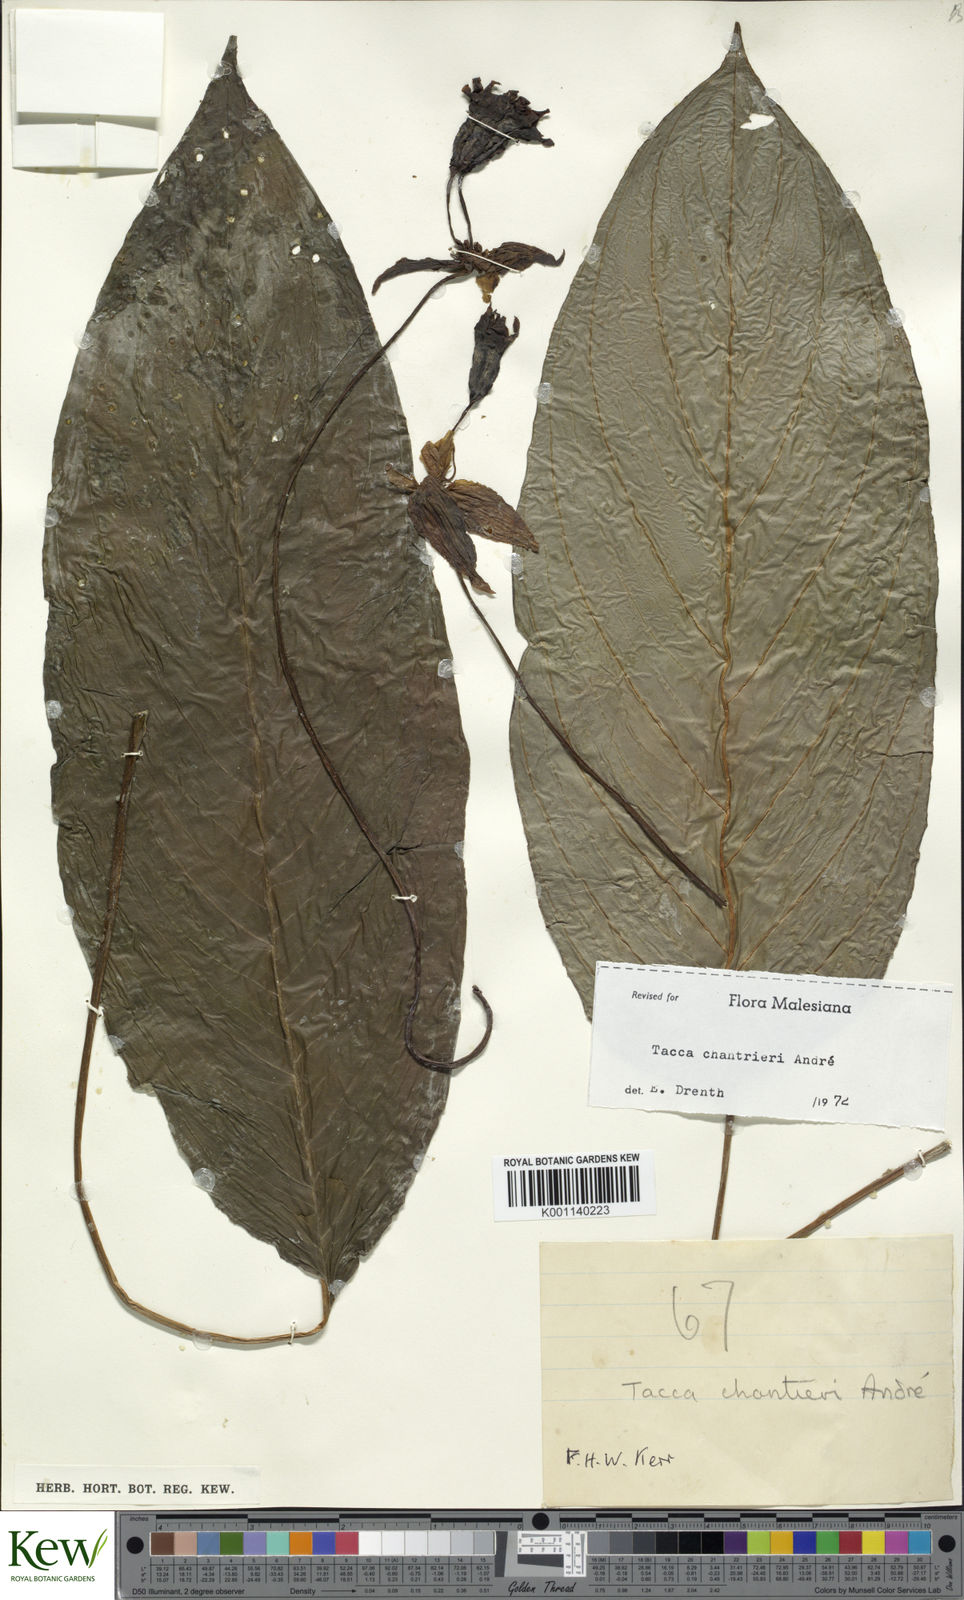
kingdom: Plantae
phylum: Tracheophyta
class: Liliopsida
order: Dioscoreales
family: Dioscoreaceae
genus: Tacca
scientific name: Tacca
